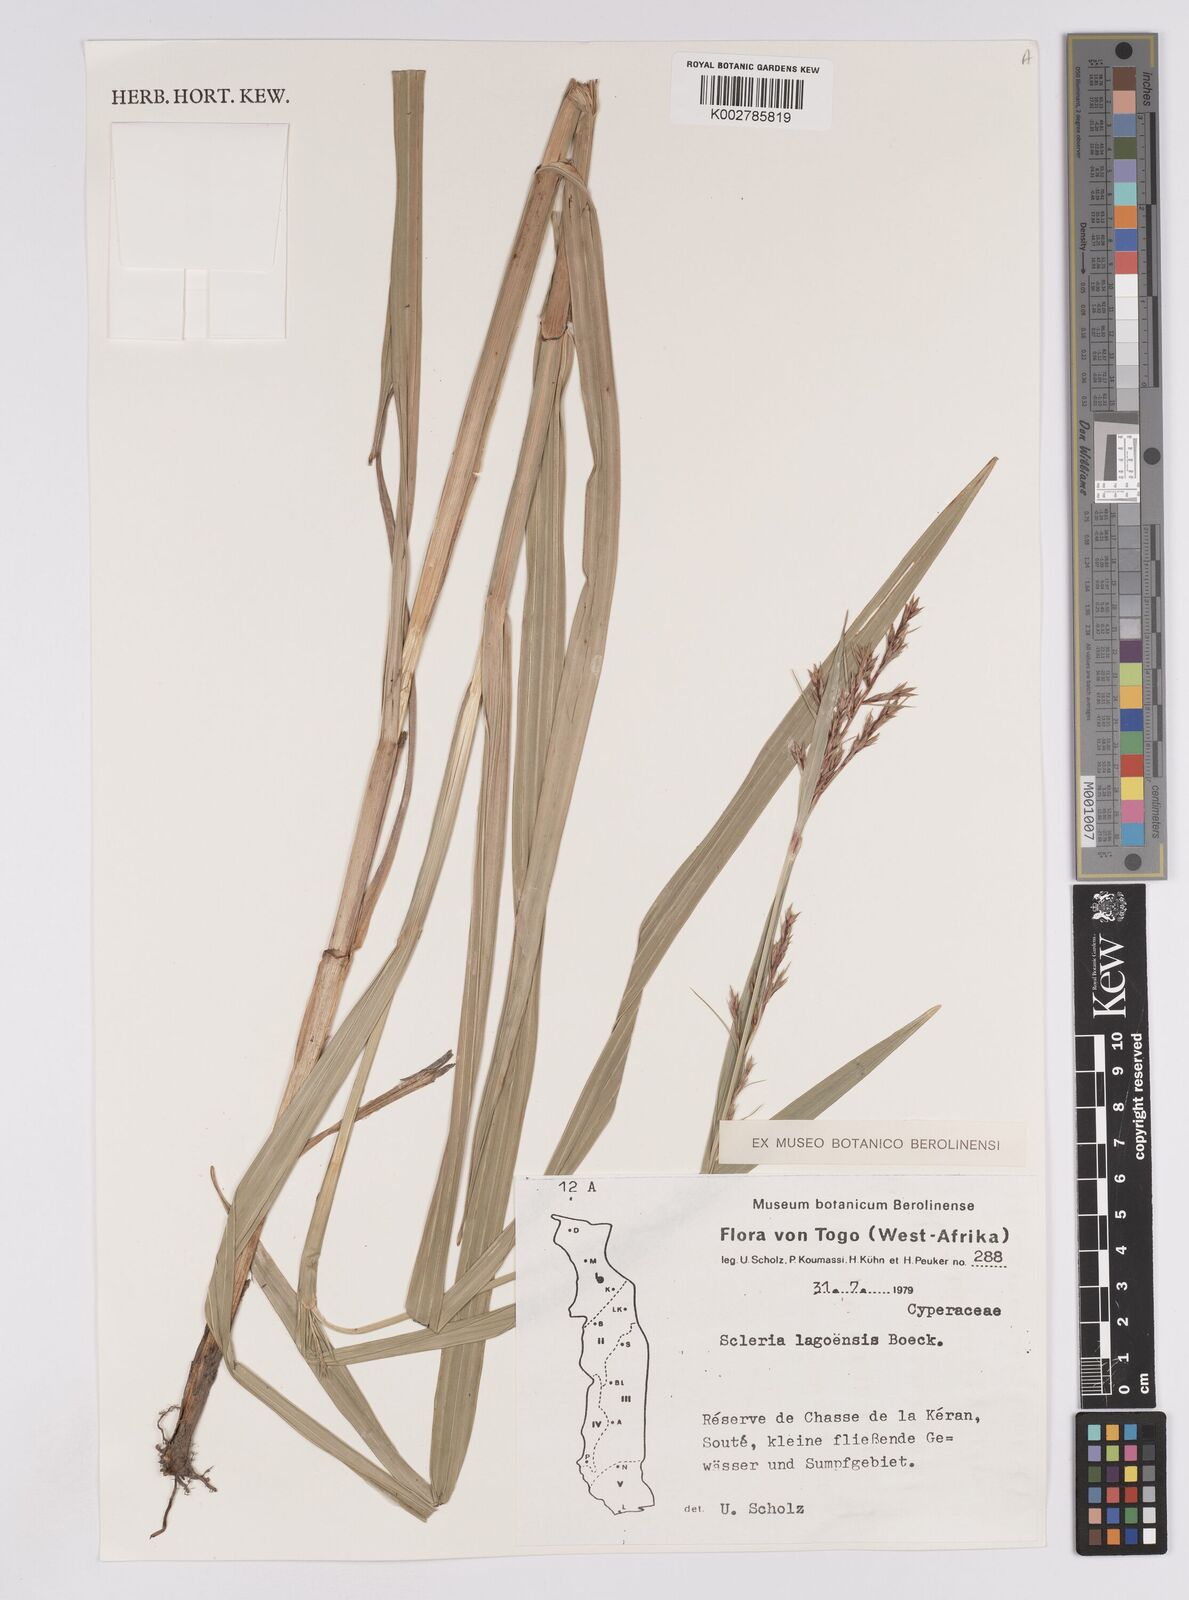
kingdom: Plantae
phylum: Tracheophyta
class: Liliopsida
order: Poales
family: Cyperaceae
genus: Scleria
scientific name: Scleria lagoensis
